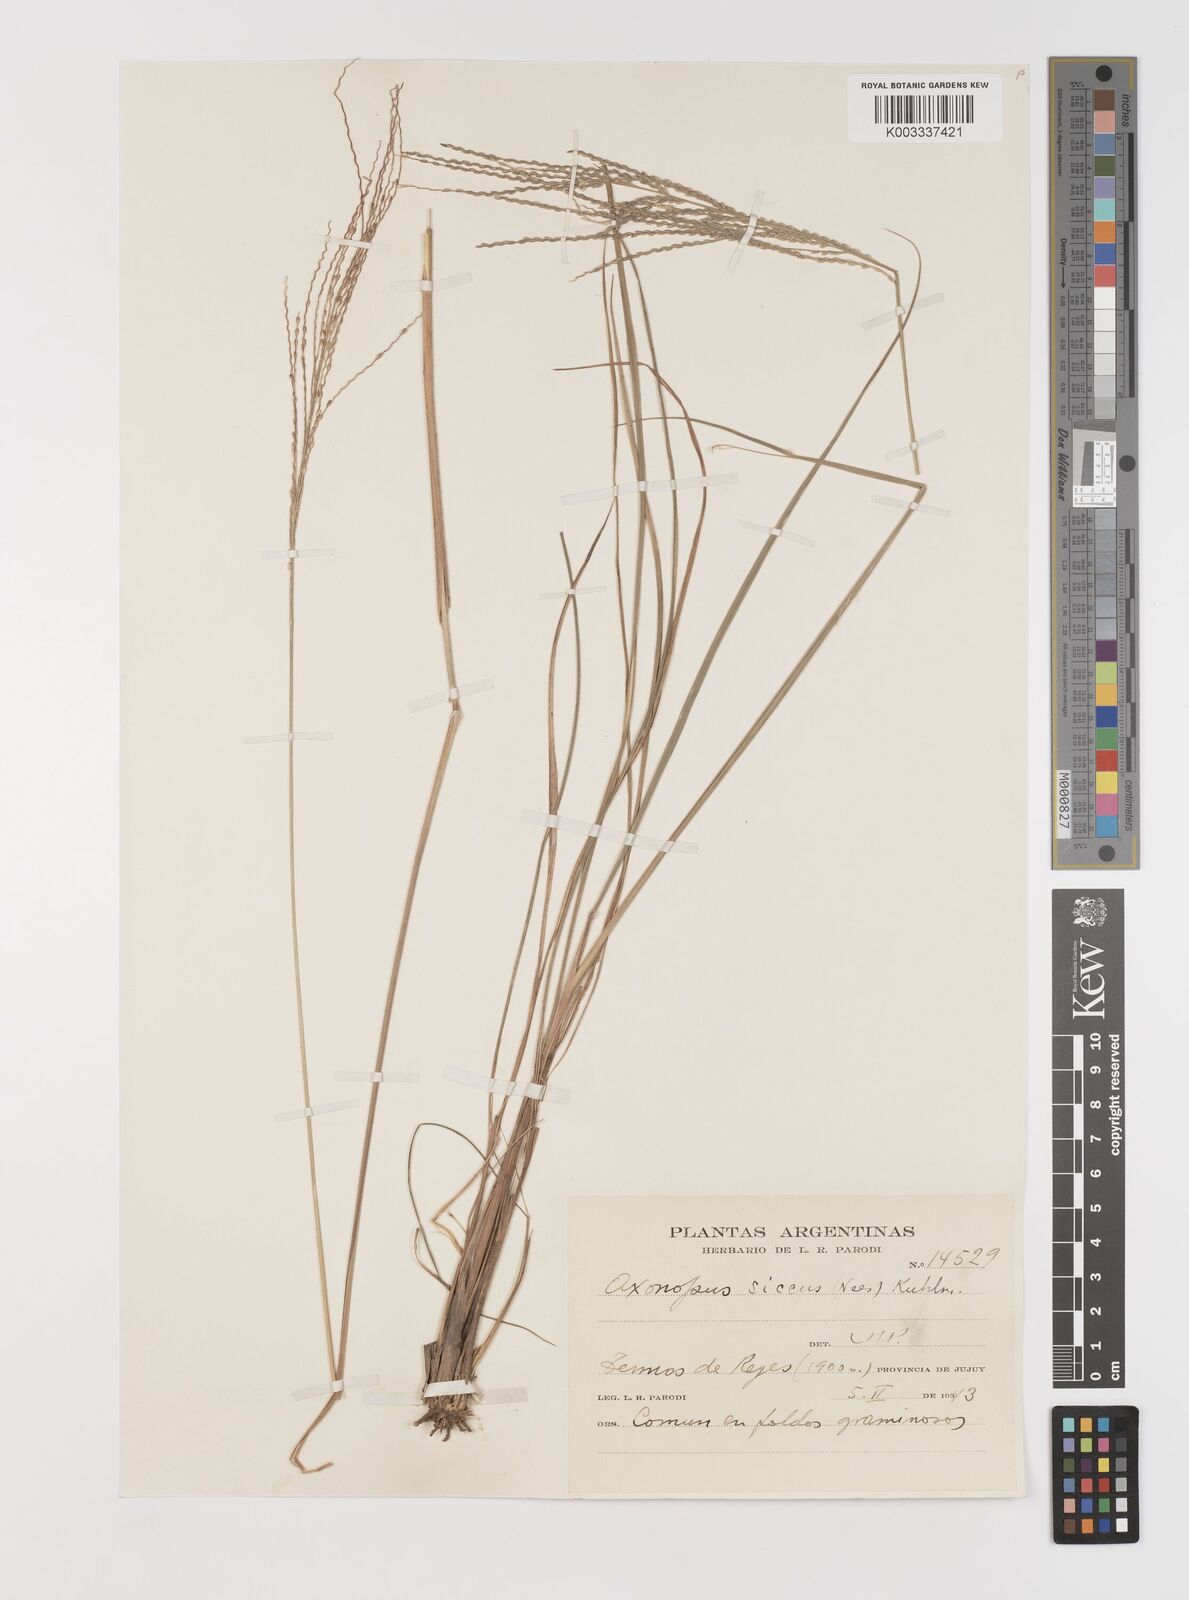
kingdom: Plantae
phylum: Tracheophyta
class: Liliopsida
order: Poales
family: Poaceae
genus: Axonopus
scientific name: Axonopus siccus
